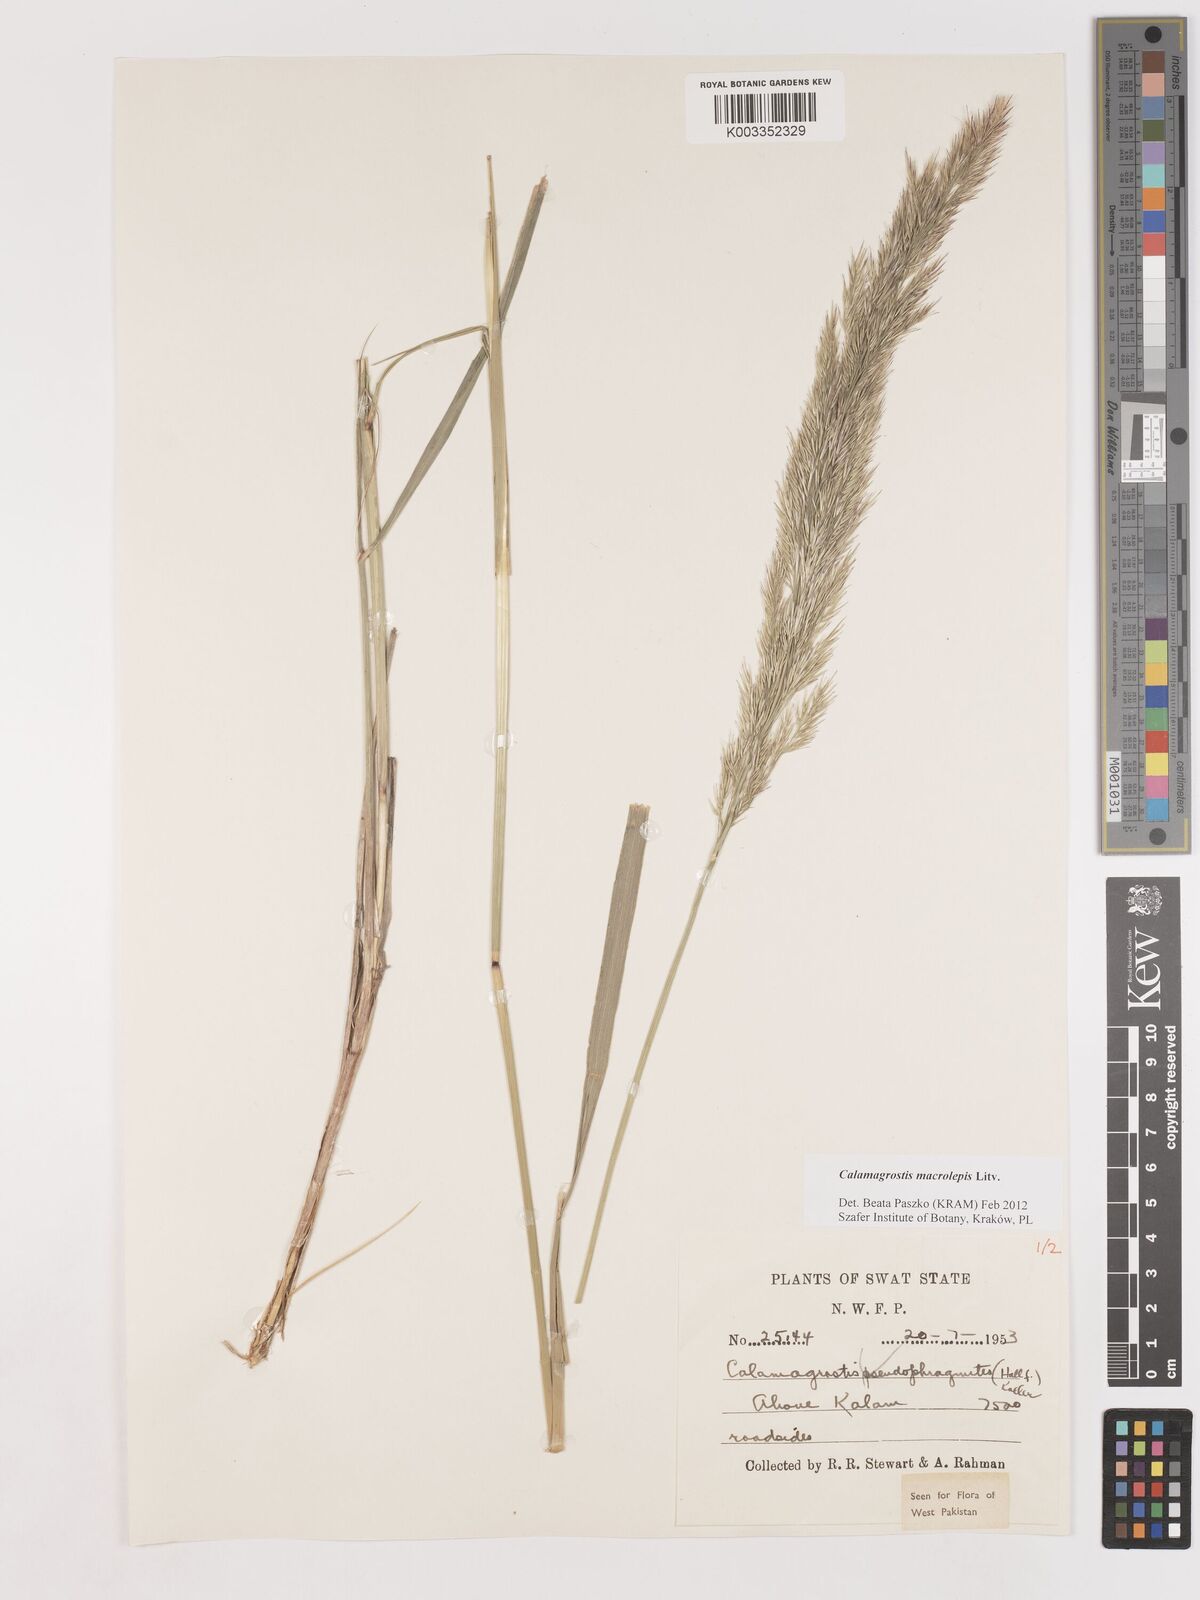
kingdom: Plantae
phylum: Tracheophyta
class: Liliopsida
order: Poales
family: Poaceae
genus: Calamagrostis
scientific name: Calamagrostis epigejos
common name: Wood small-reed
